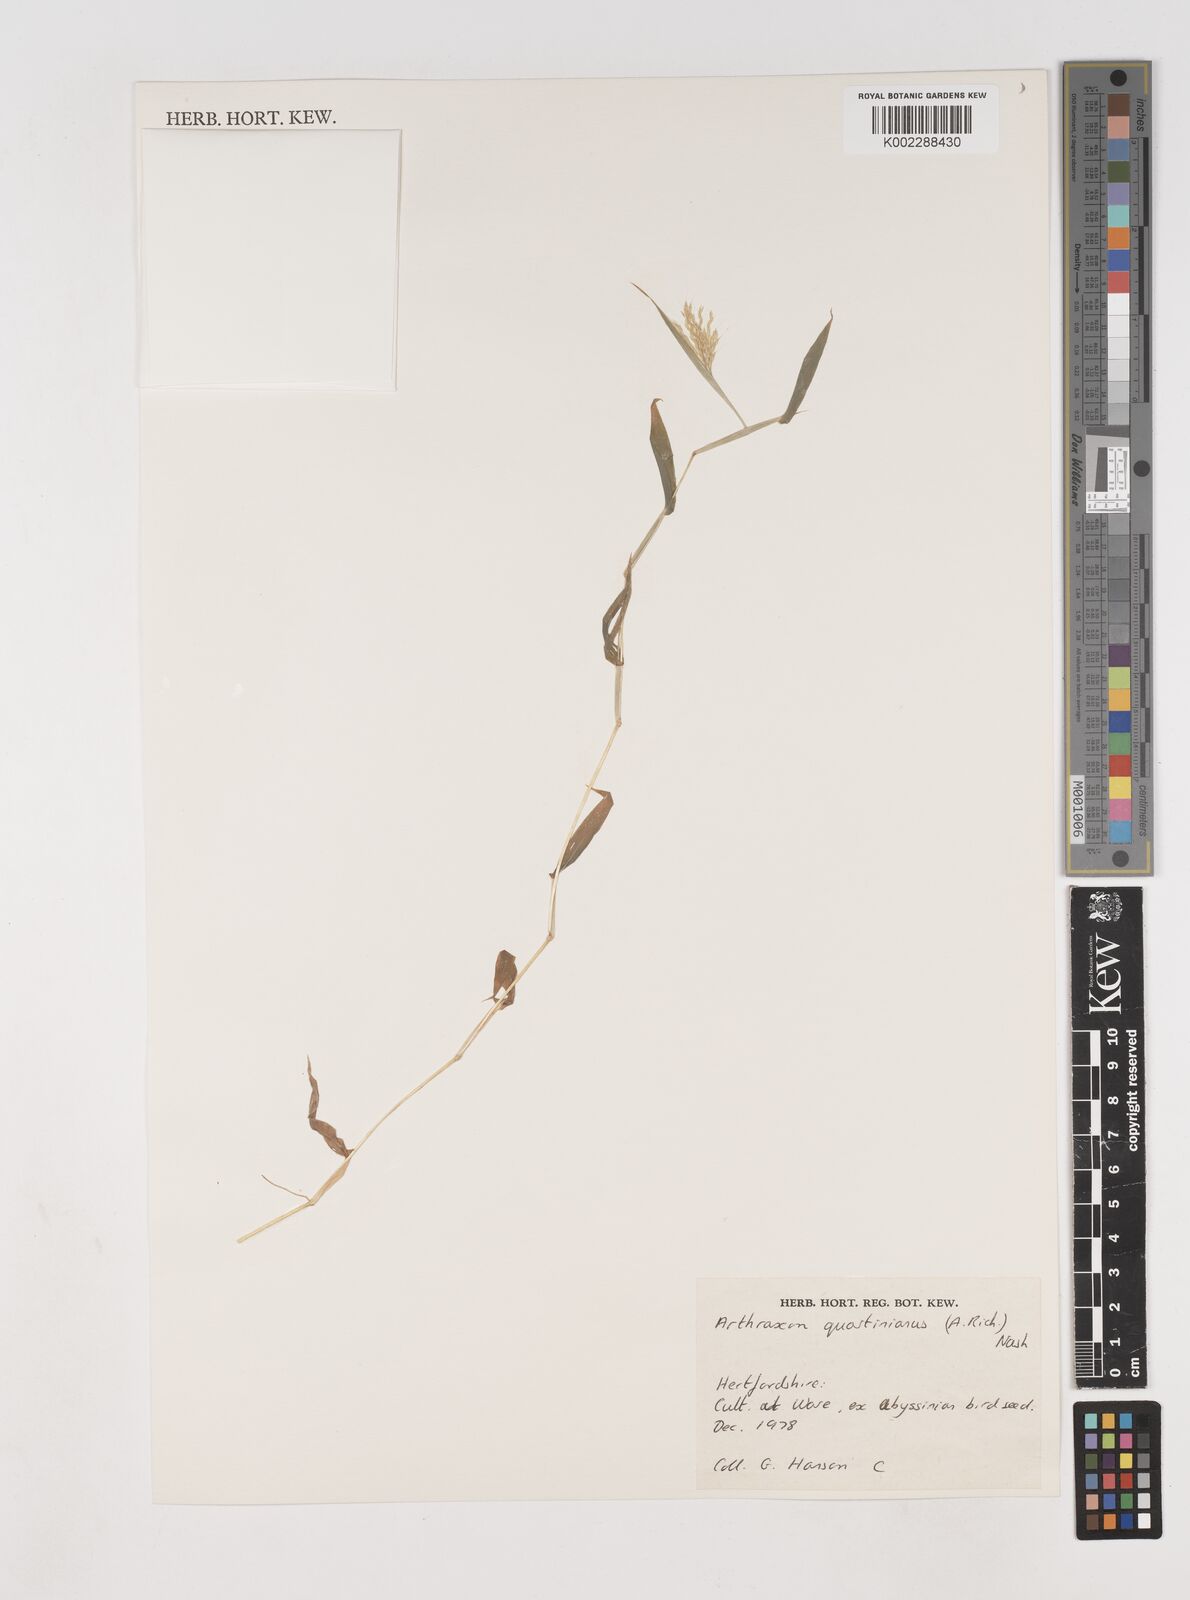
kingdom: Plantae
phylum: Tracheophyta
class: Liliopsida
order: Poales
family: Poaceae
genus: Arthraxon
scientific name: Arthraxon
